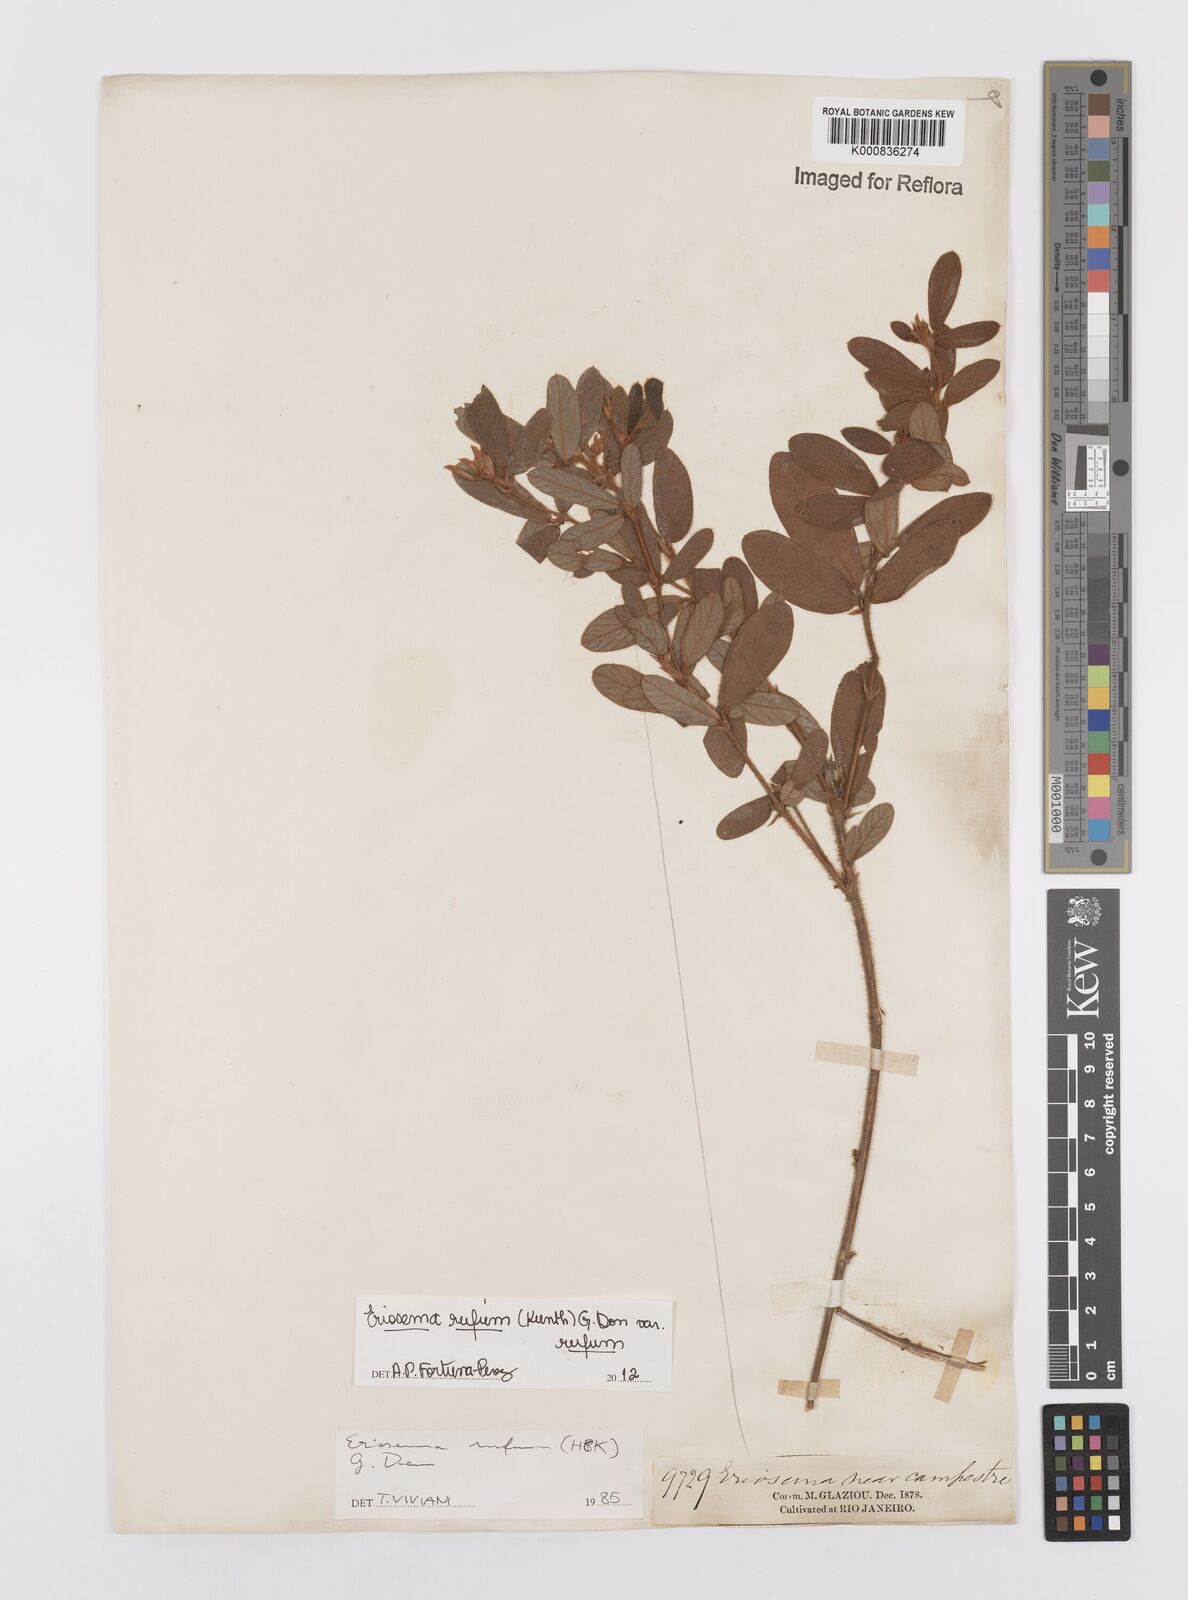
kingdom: Plantae
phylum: Tracheophyta
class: Magnoliopsida
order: Fabales
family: Fabaceae
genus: Eriosema
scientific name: Eriosema rufum
